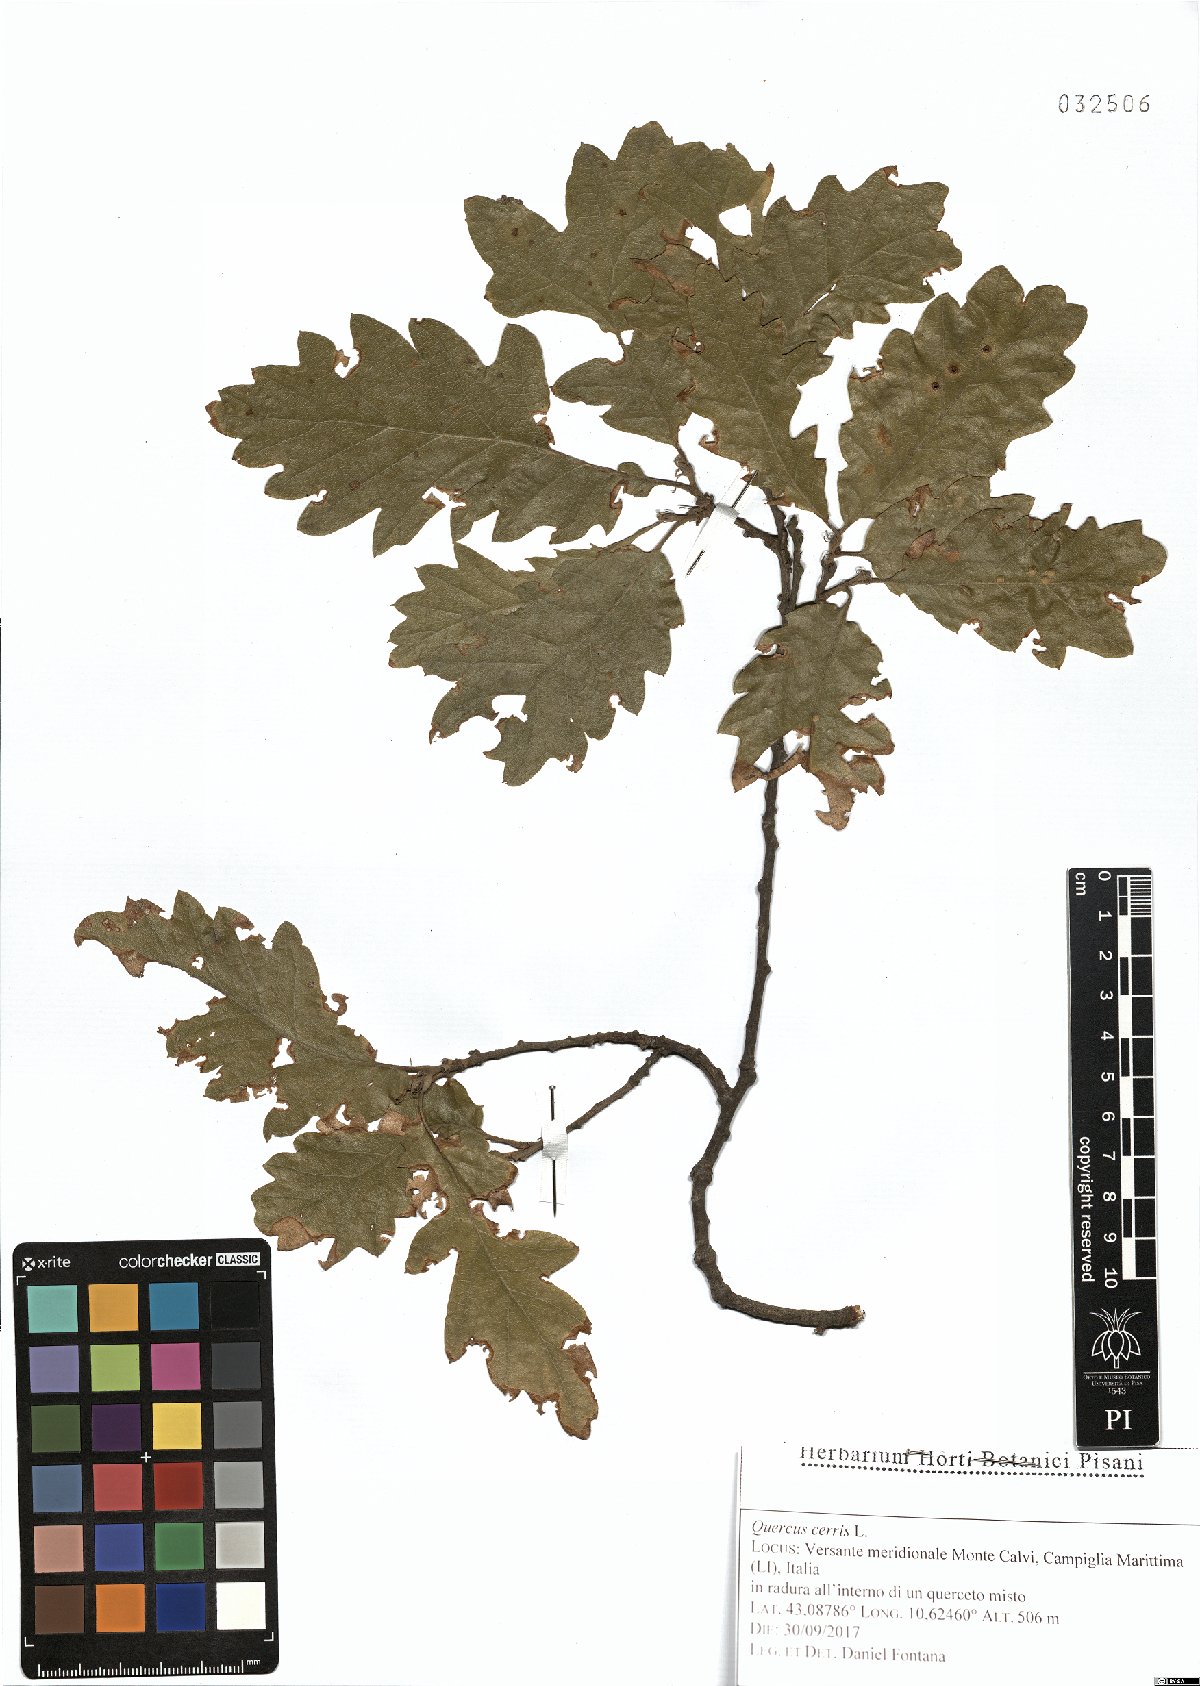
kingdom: Plantae
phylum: Tracheophyta
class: Magnoliopsida
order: Fagales
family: Fagaceae
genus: Quercus
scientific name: Quercus cerris
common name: Turkey oak
